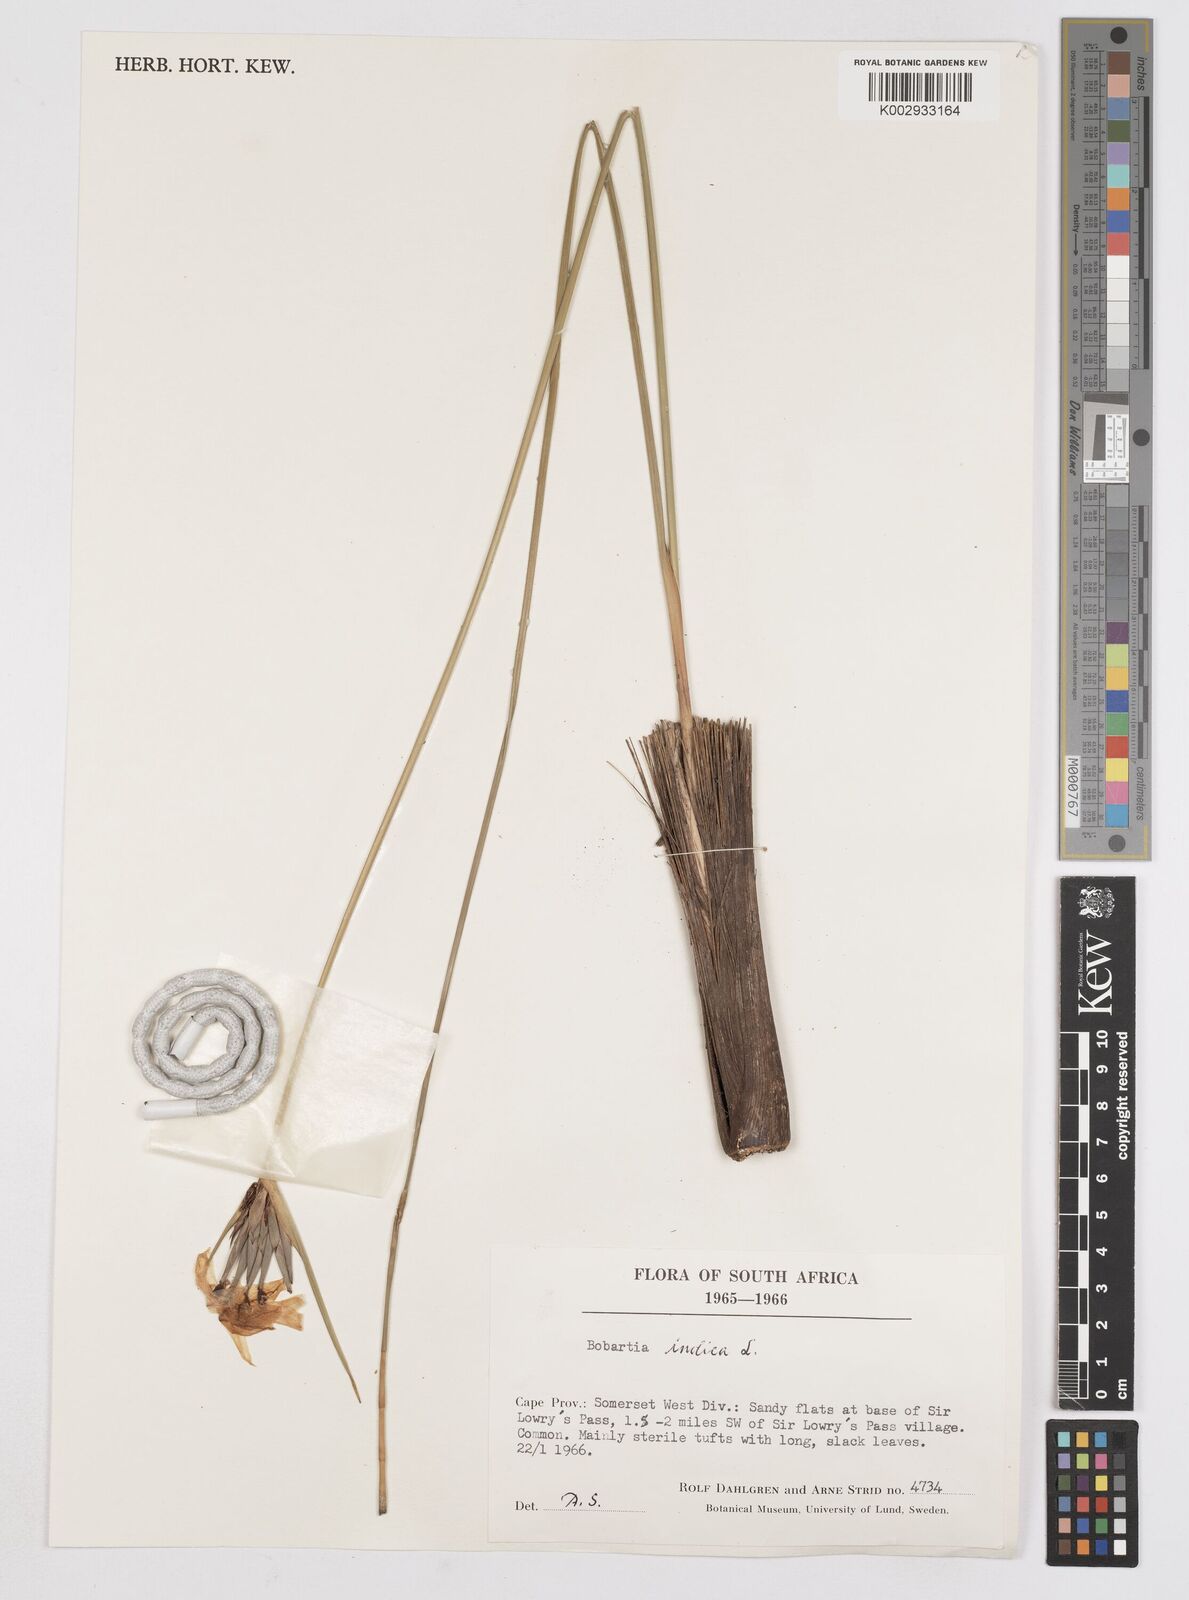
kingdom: Plantae
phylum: Tracheophyta
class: Liliopsida
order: Asparagales
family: Iridaceae
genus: Bobartia
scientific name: Bobartia indica
